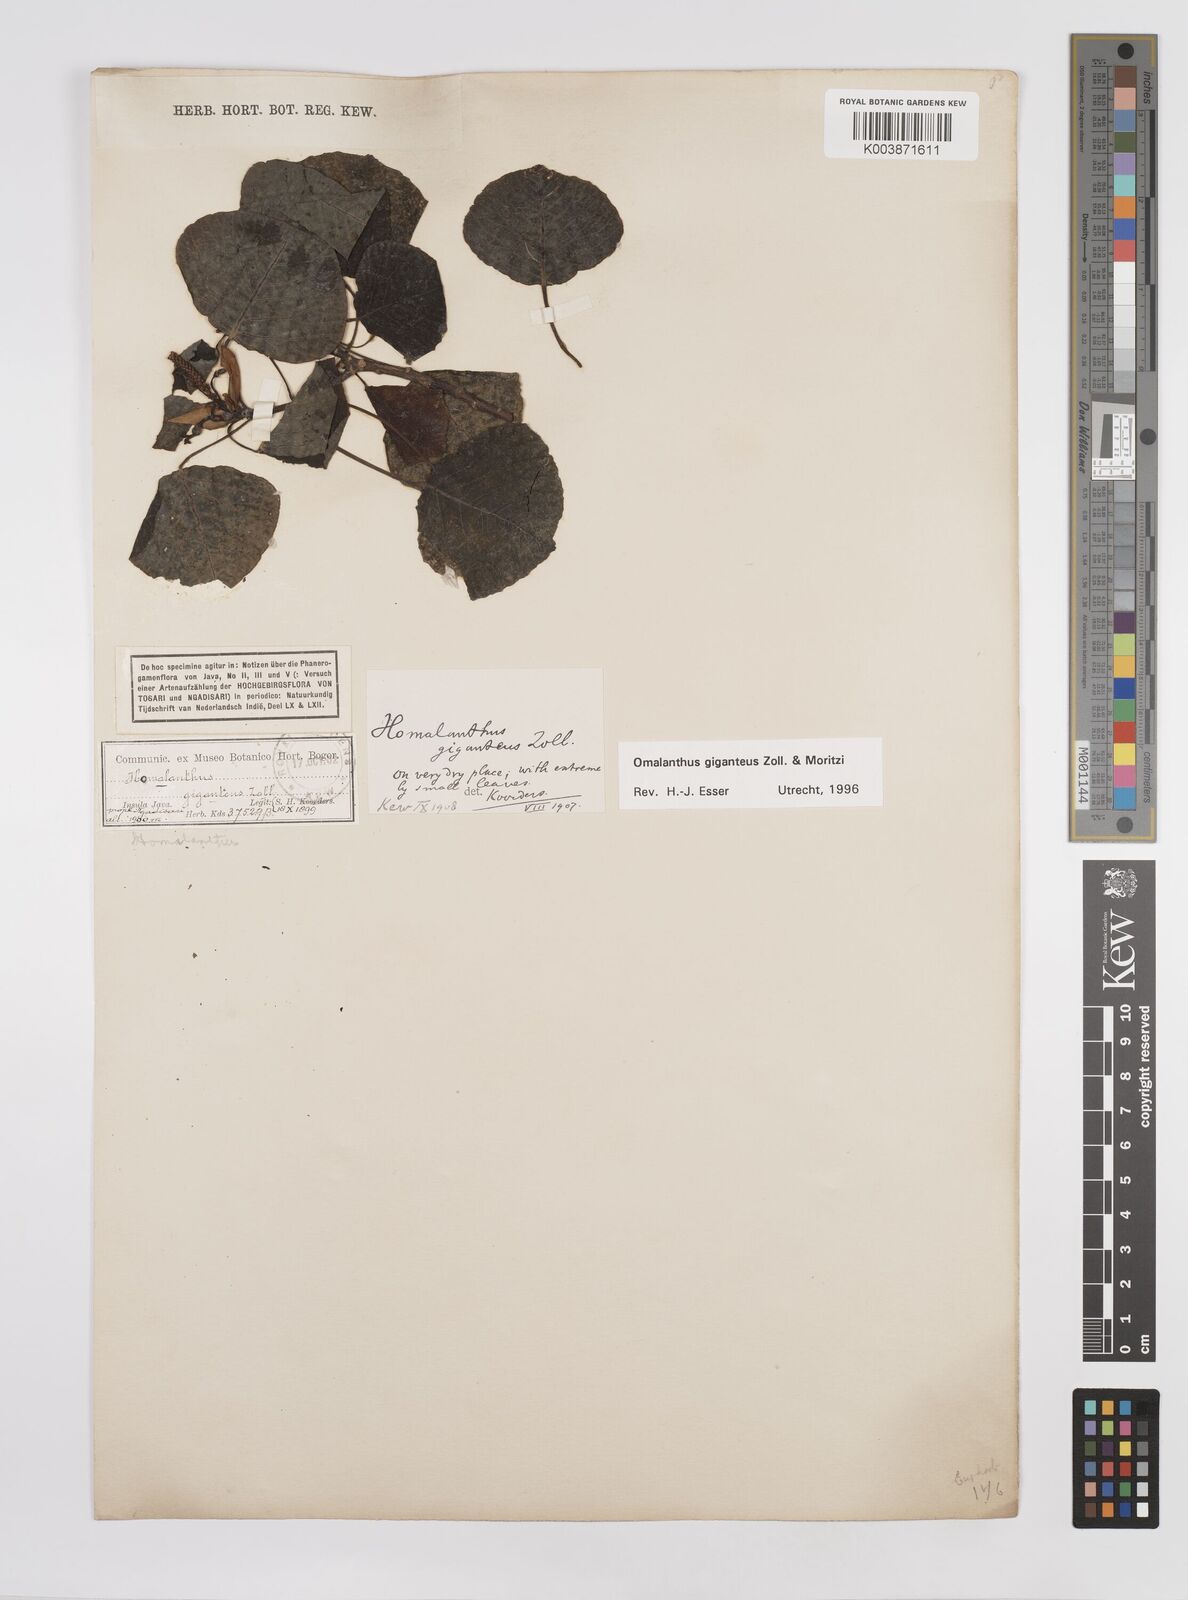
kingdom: Plantae
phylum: Tracheophyta
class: Magnoliopsida
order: Malpighiales
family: Euphorbiaceae
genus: Homalanthus
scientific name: Homalanthus giganteus
